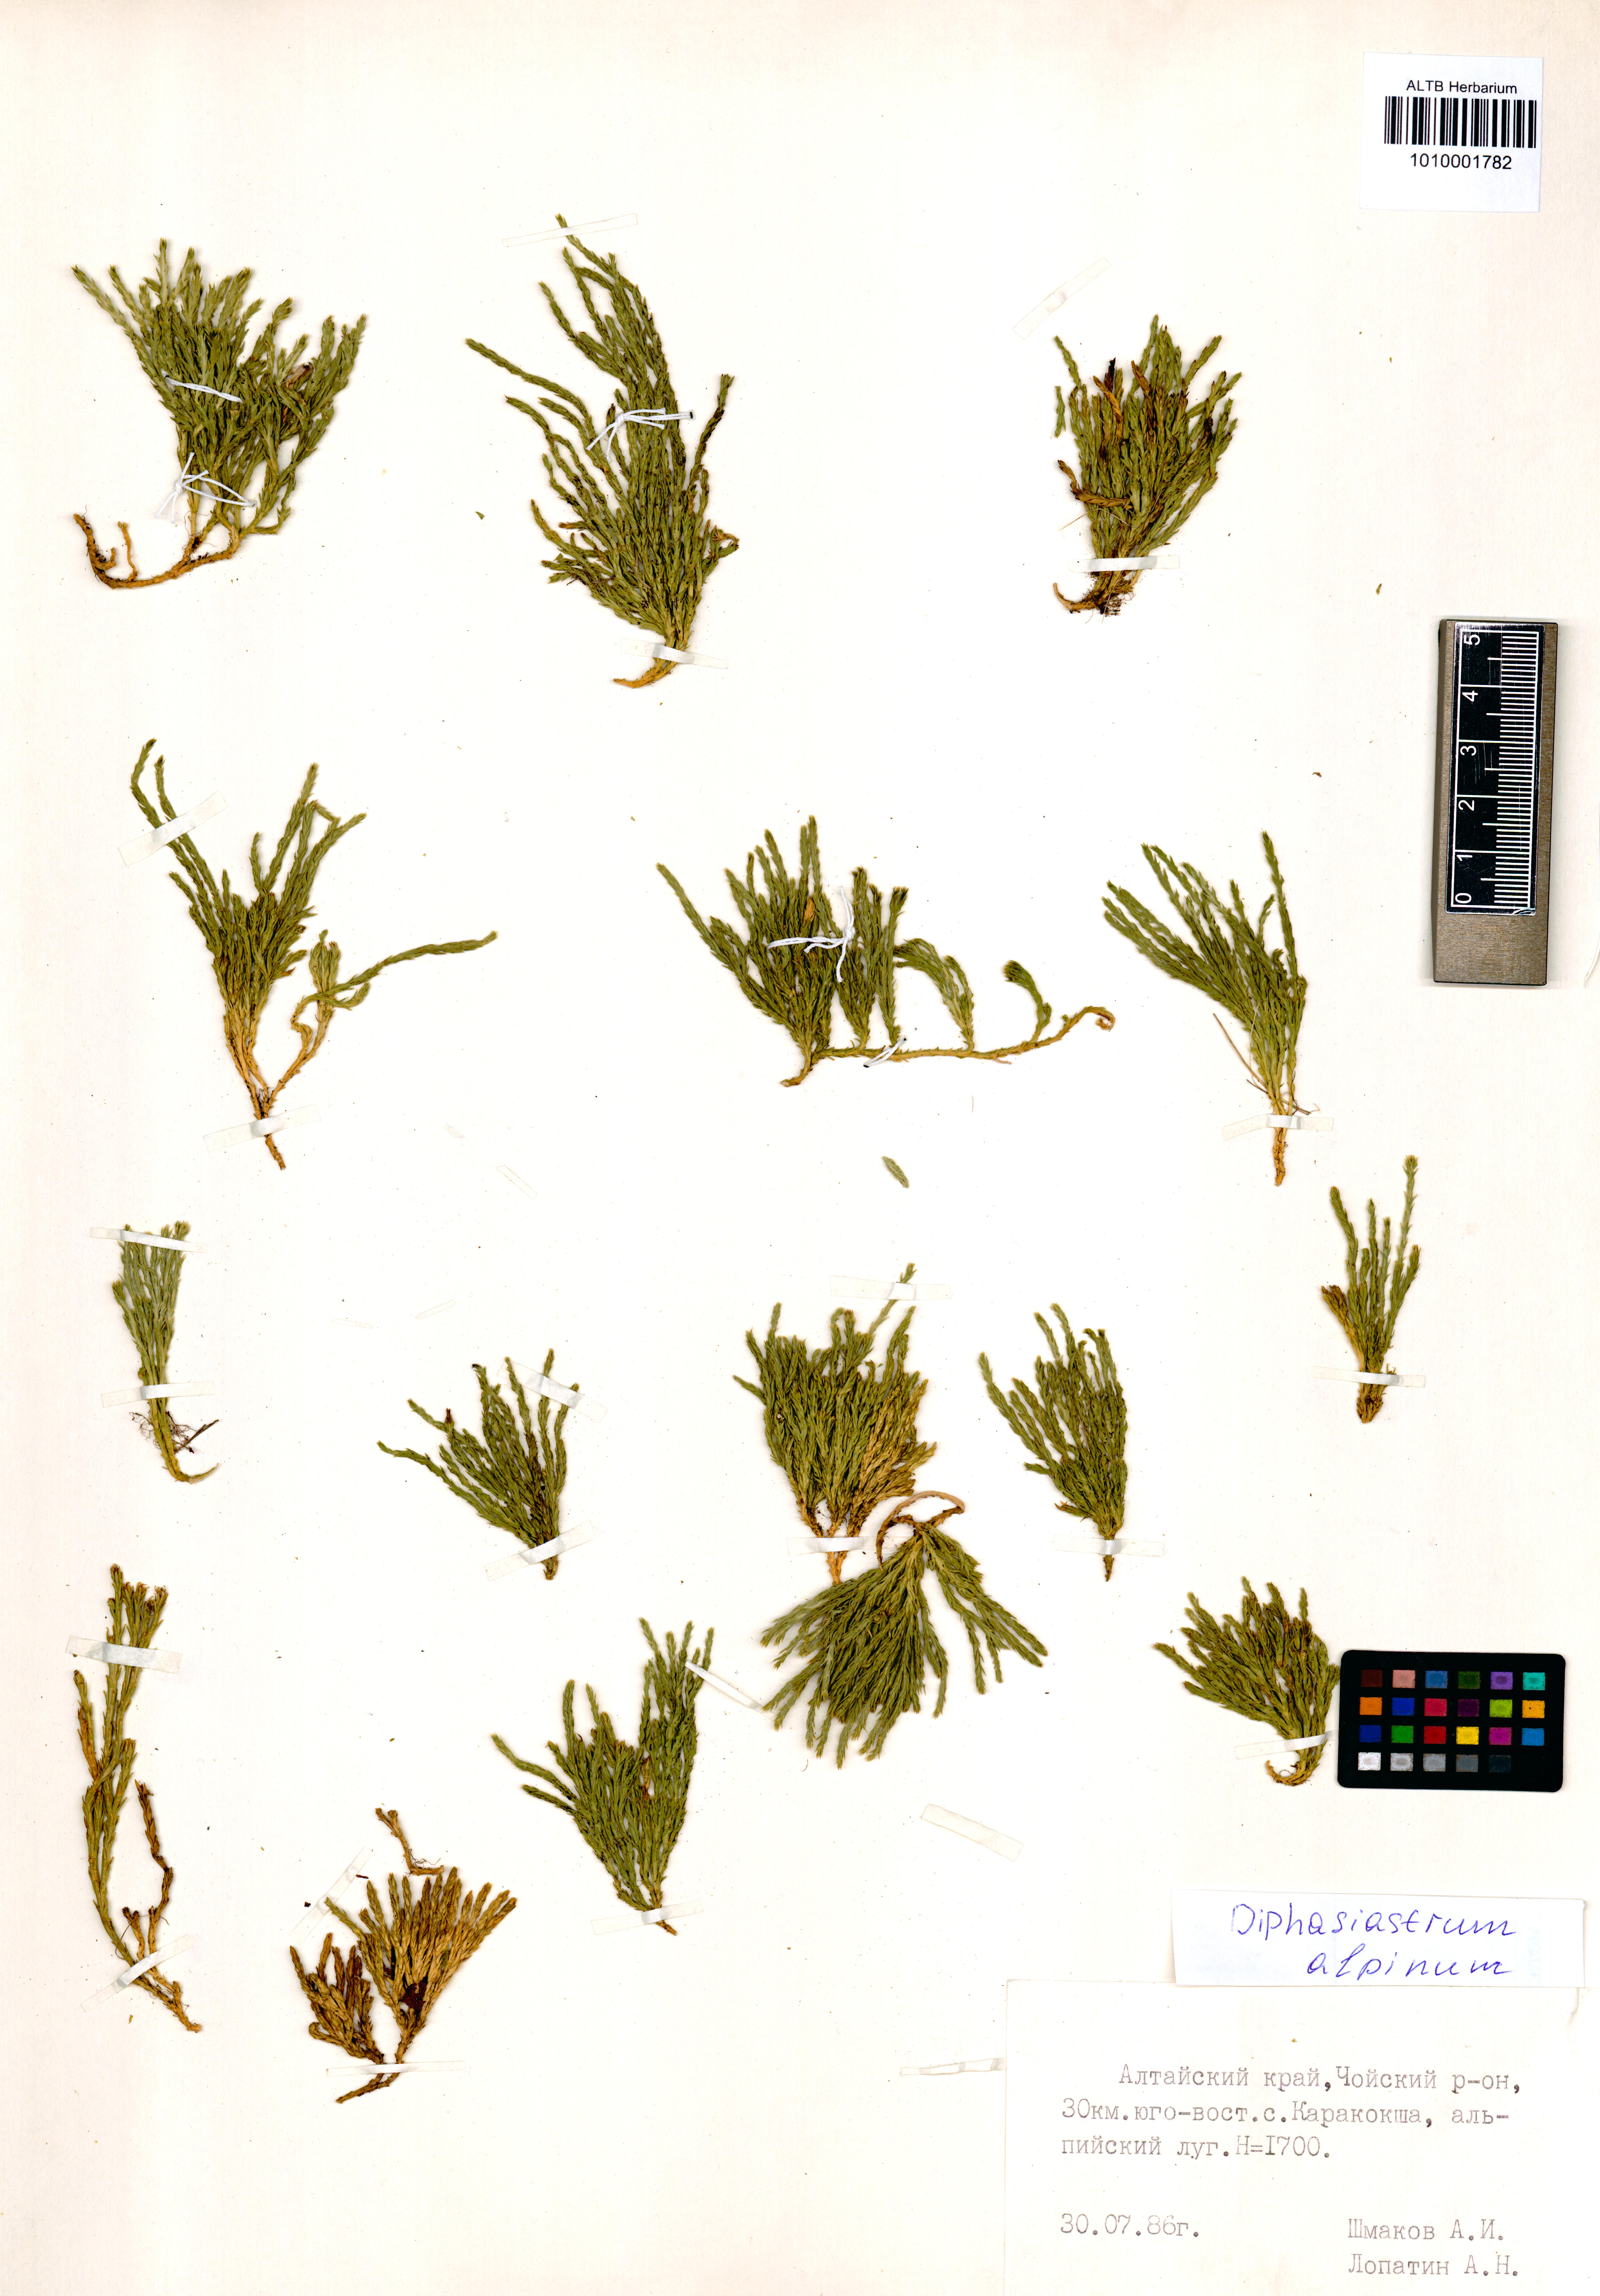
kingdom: Plantae
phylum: Tracheophyta
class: Lycopodiopsida
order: Lycopodiales
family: Lycopodiaceae
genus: Diphasiastrum
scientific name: Diphasiastrum alpinum
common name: Alpine clubmoss
